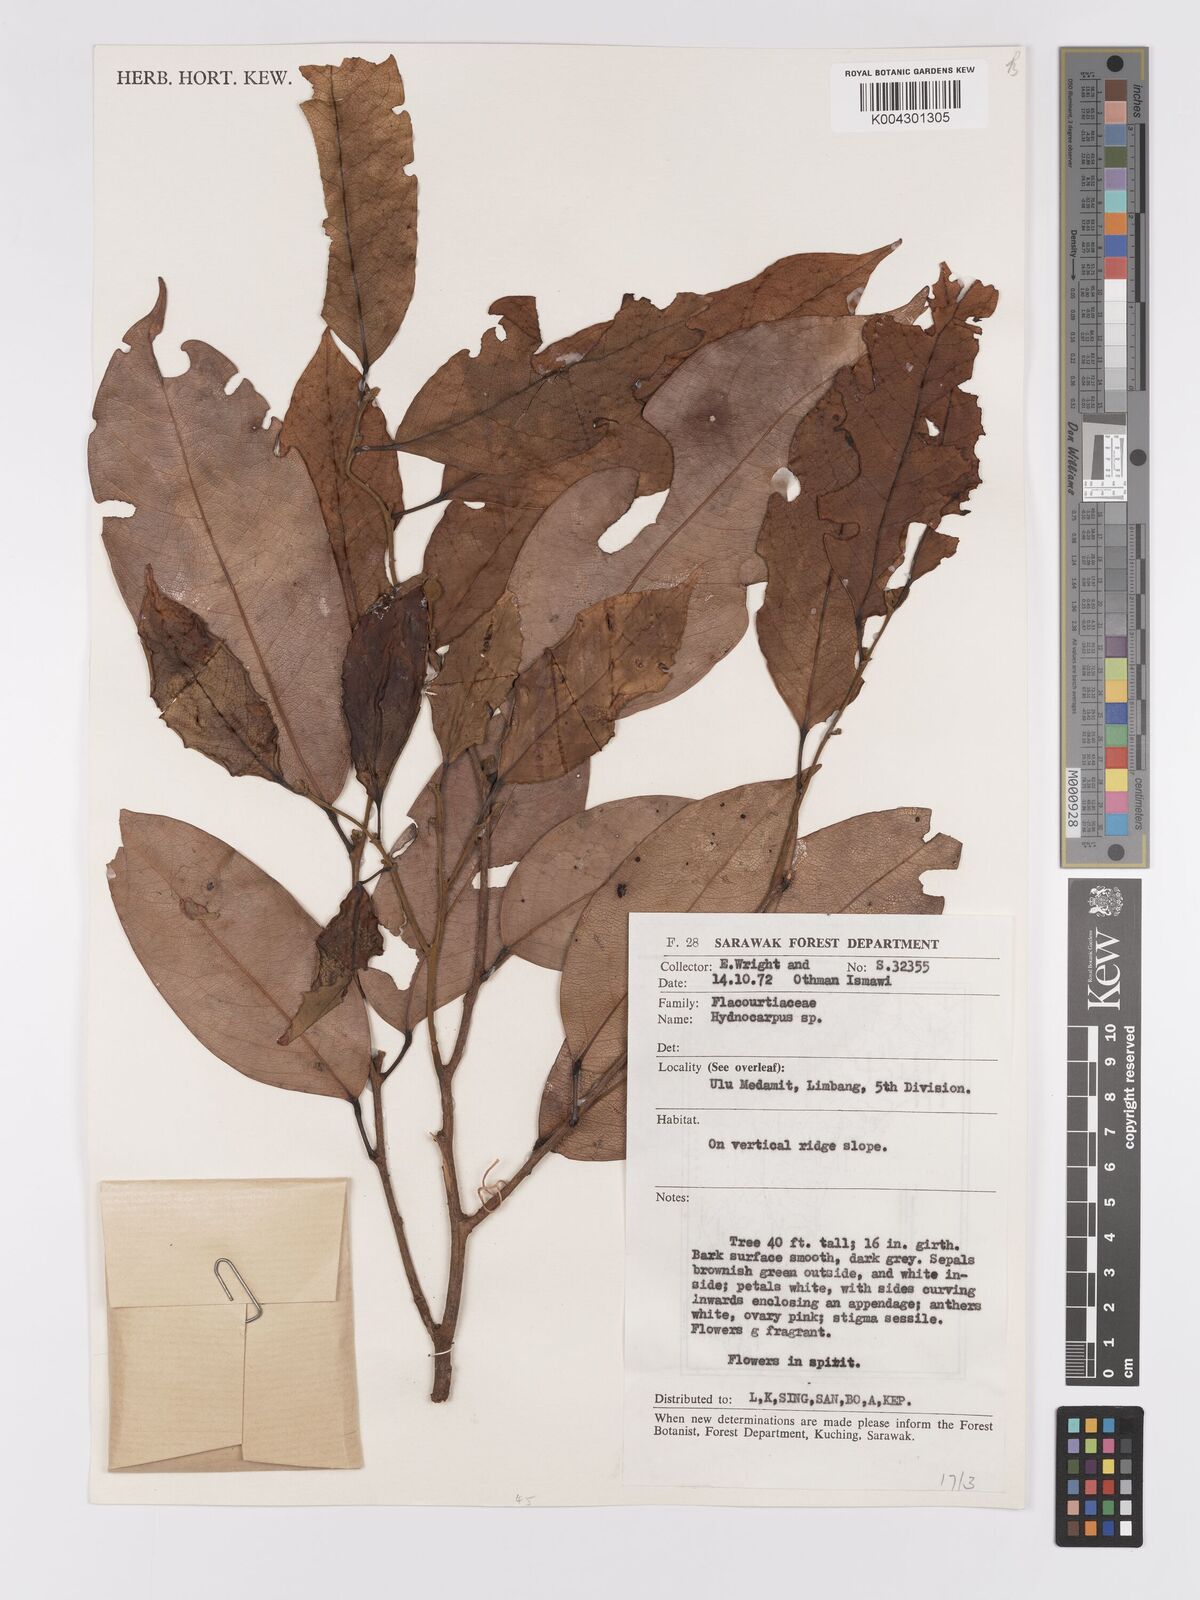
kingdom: Plantae
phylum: Tracheophyta
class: Magnoliopsida
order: Malpighiales
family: Achariaceae
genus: Hydnocarpus
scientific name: Hydnocarpus
